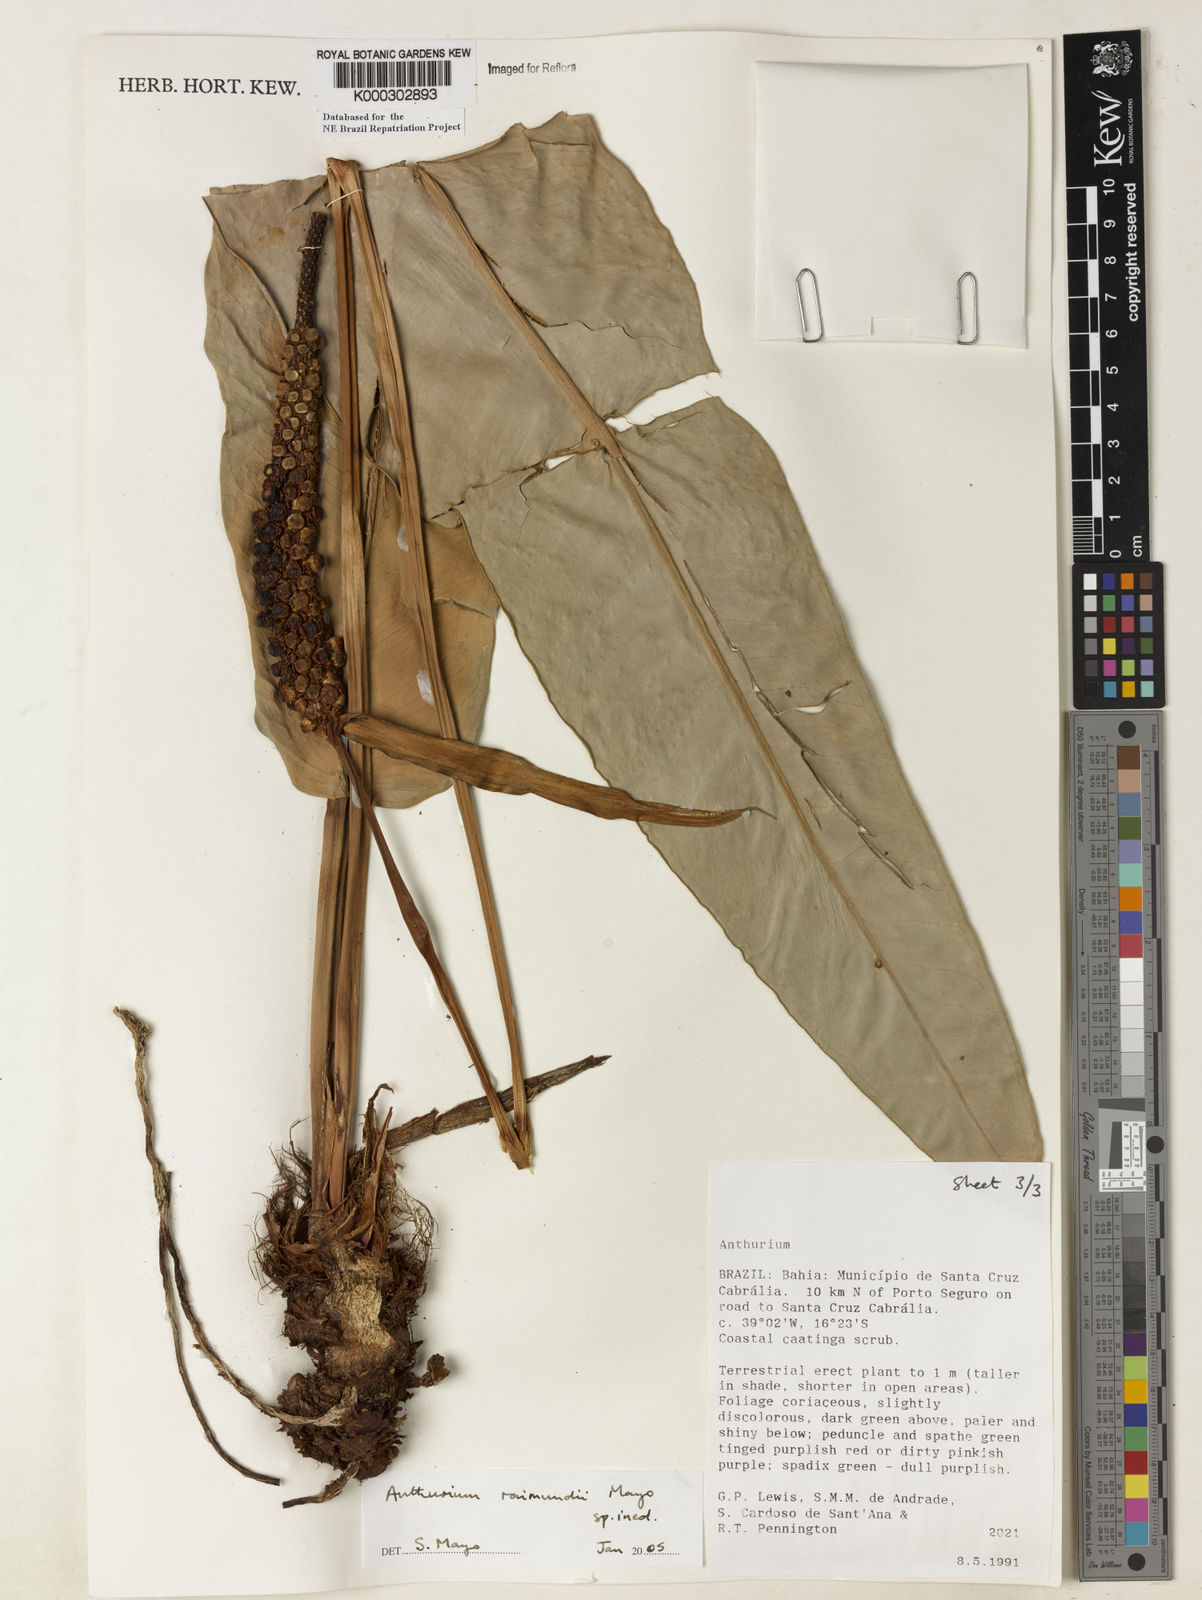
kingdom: Plantae
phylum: Tracheophyta
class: Liliopsida
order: Alismatales
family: Araceae
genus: Anthurium
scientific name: Anthurium raimundii
